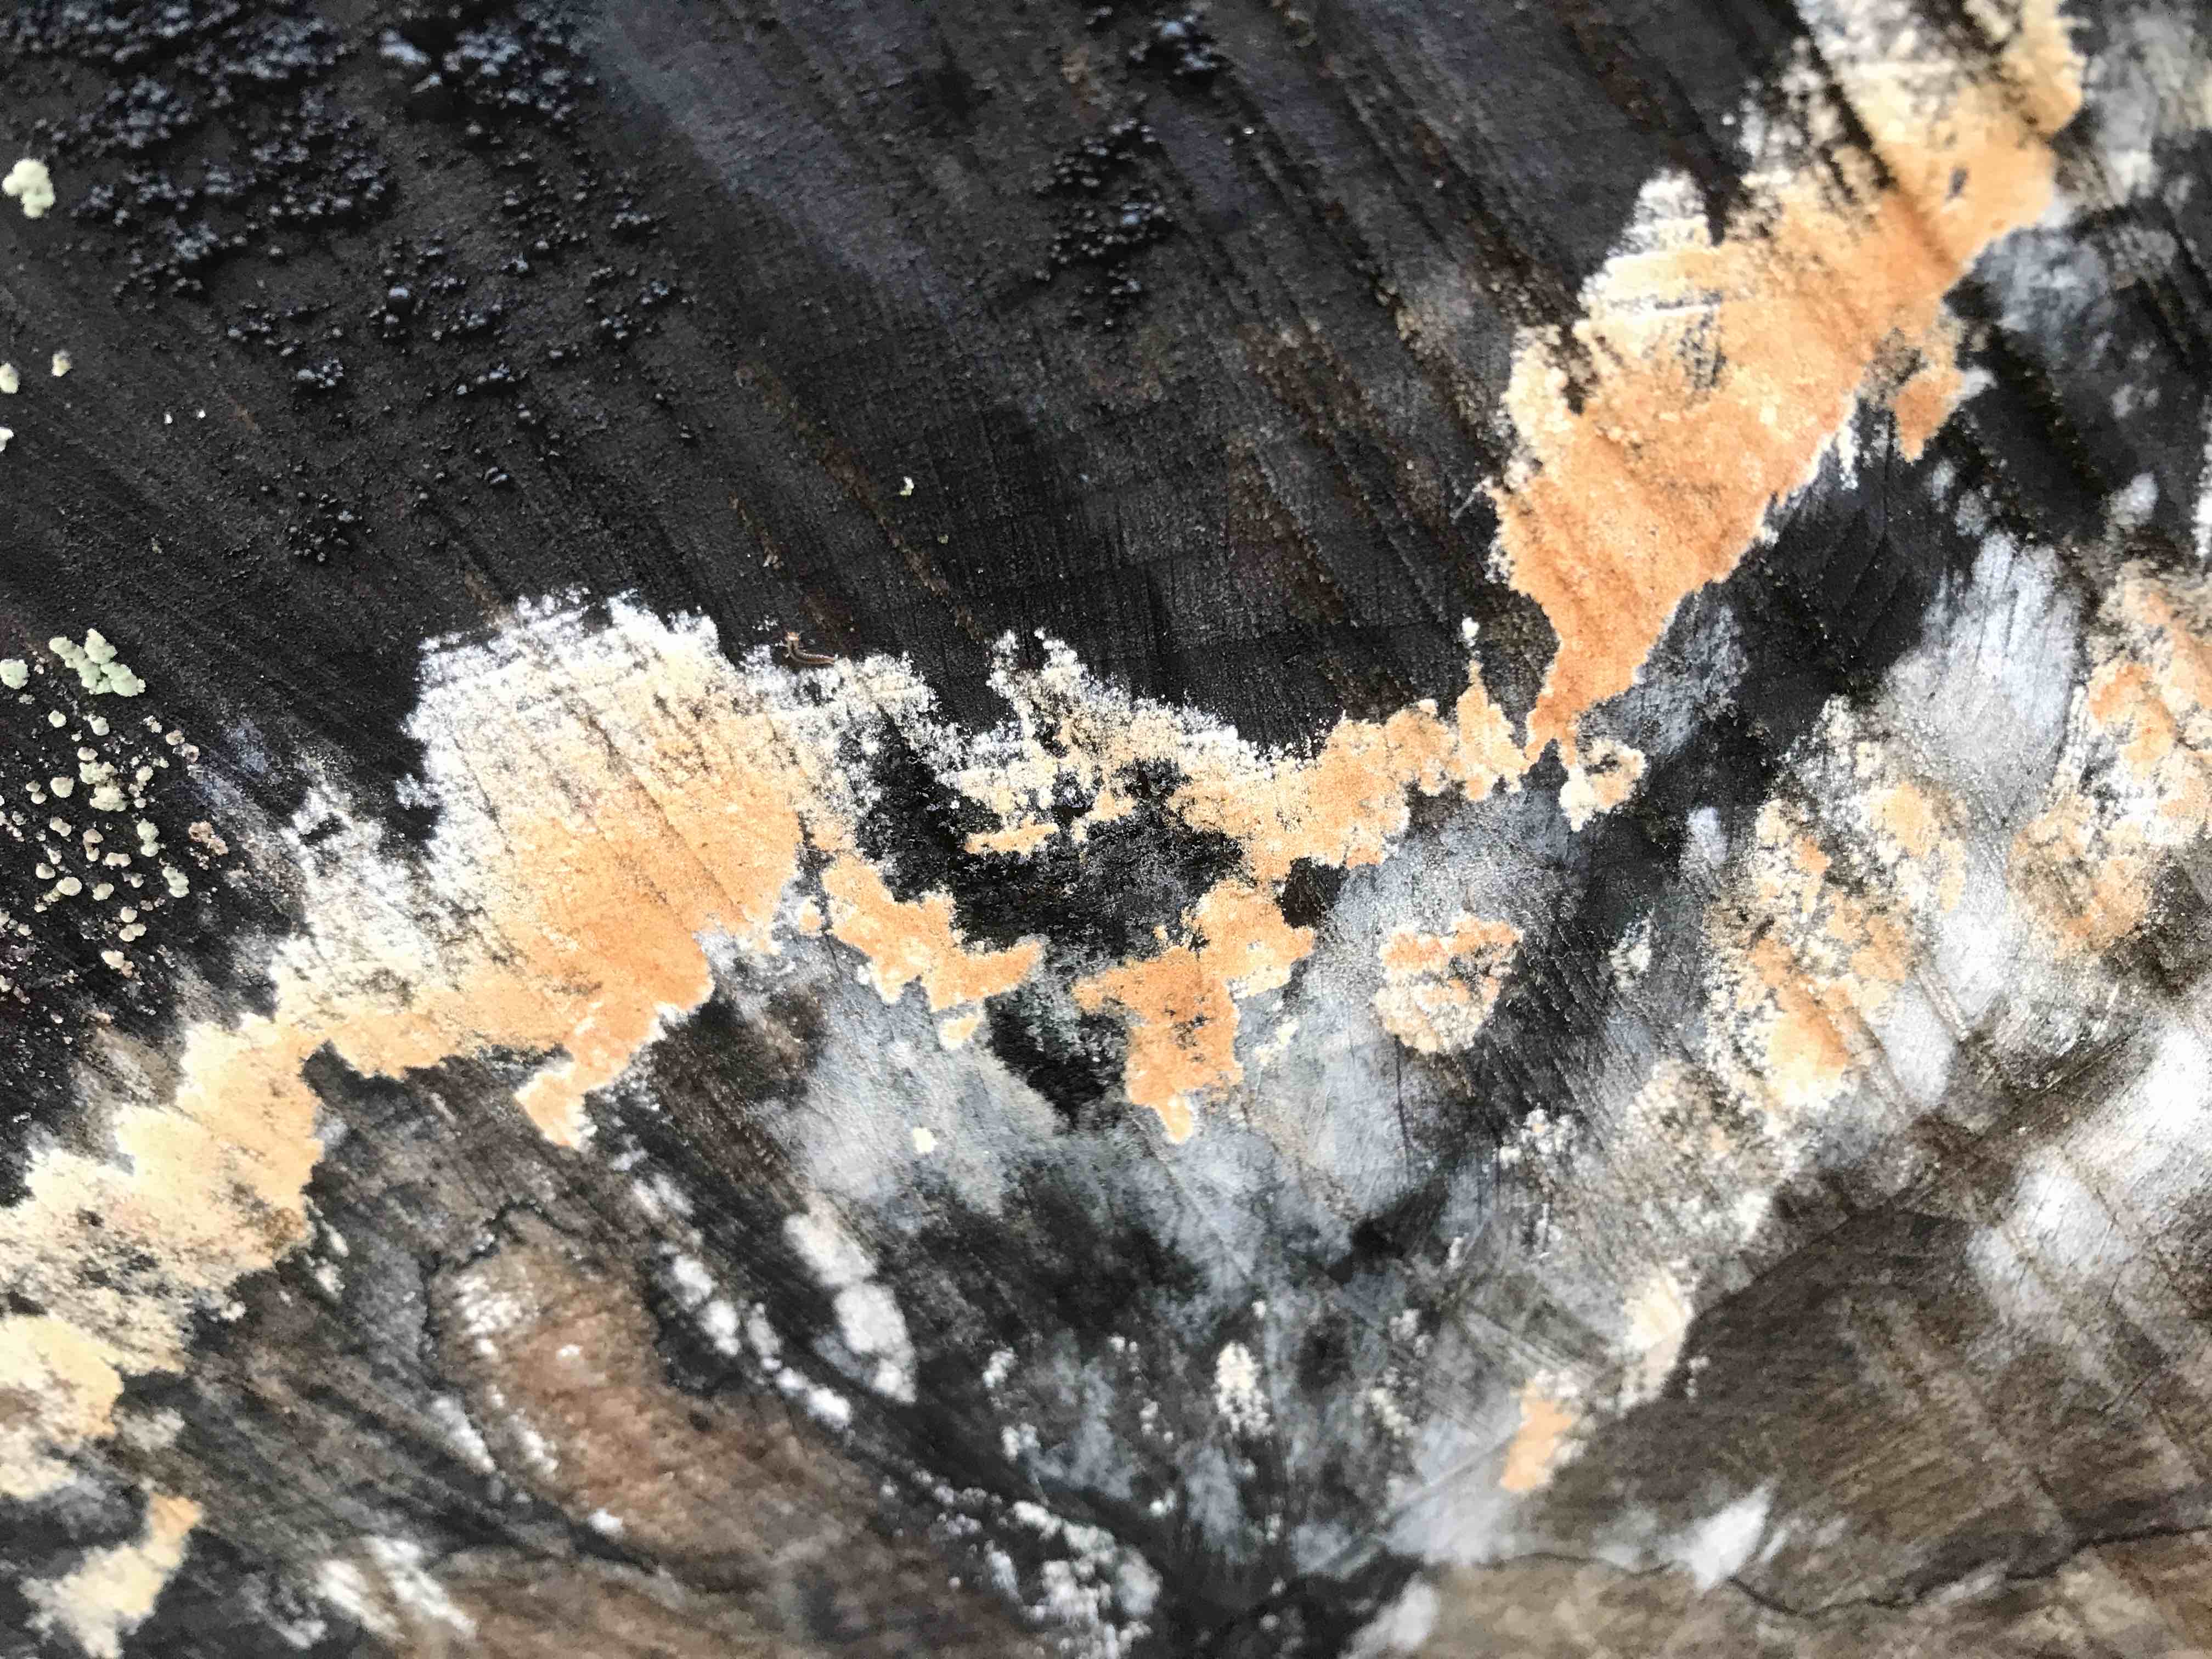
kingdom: Fungi
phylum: Basidiomycota
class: Agaricomycetes
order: Russulales
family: Peniophoraceae
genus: Peniophora
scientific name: Peniophora incarnata
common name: laksefarvet voksskind
